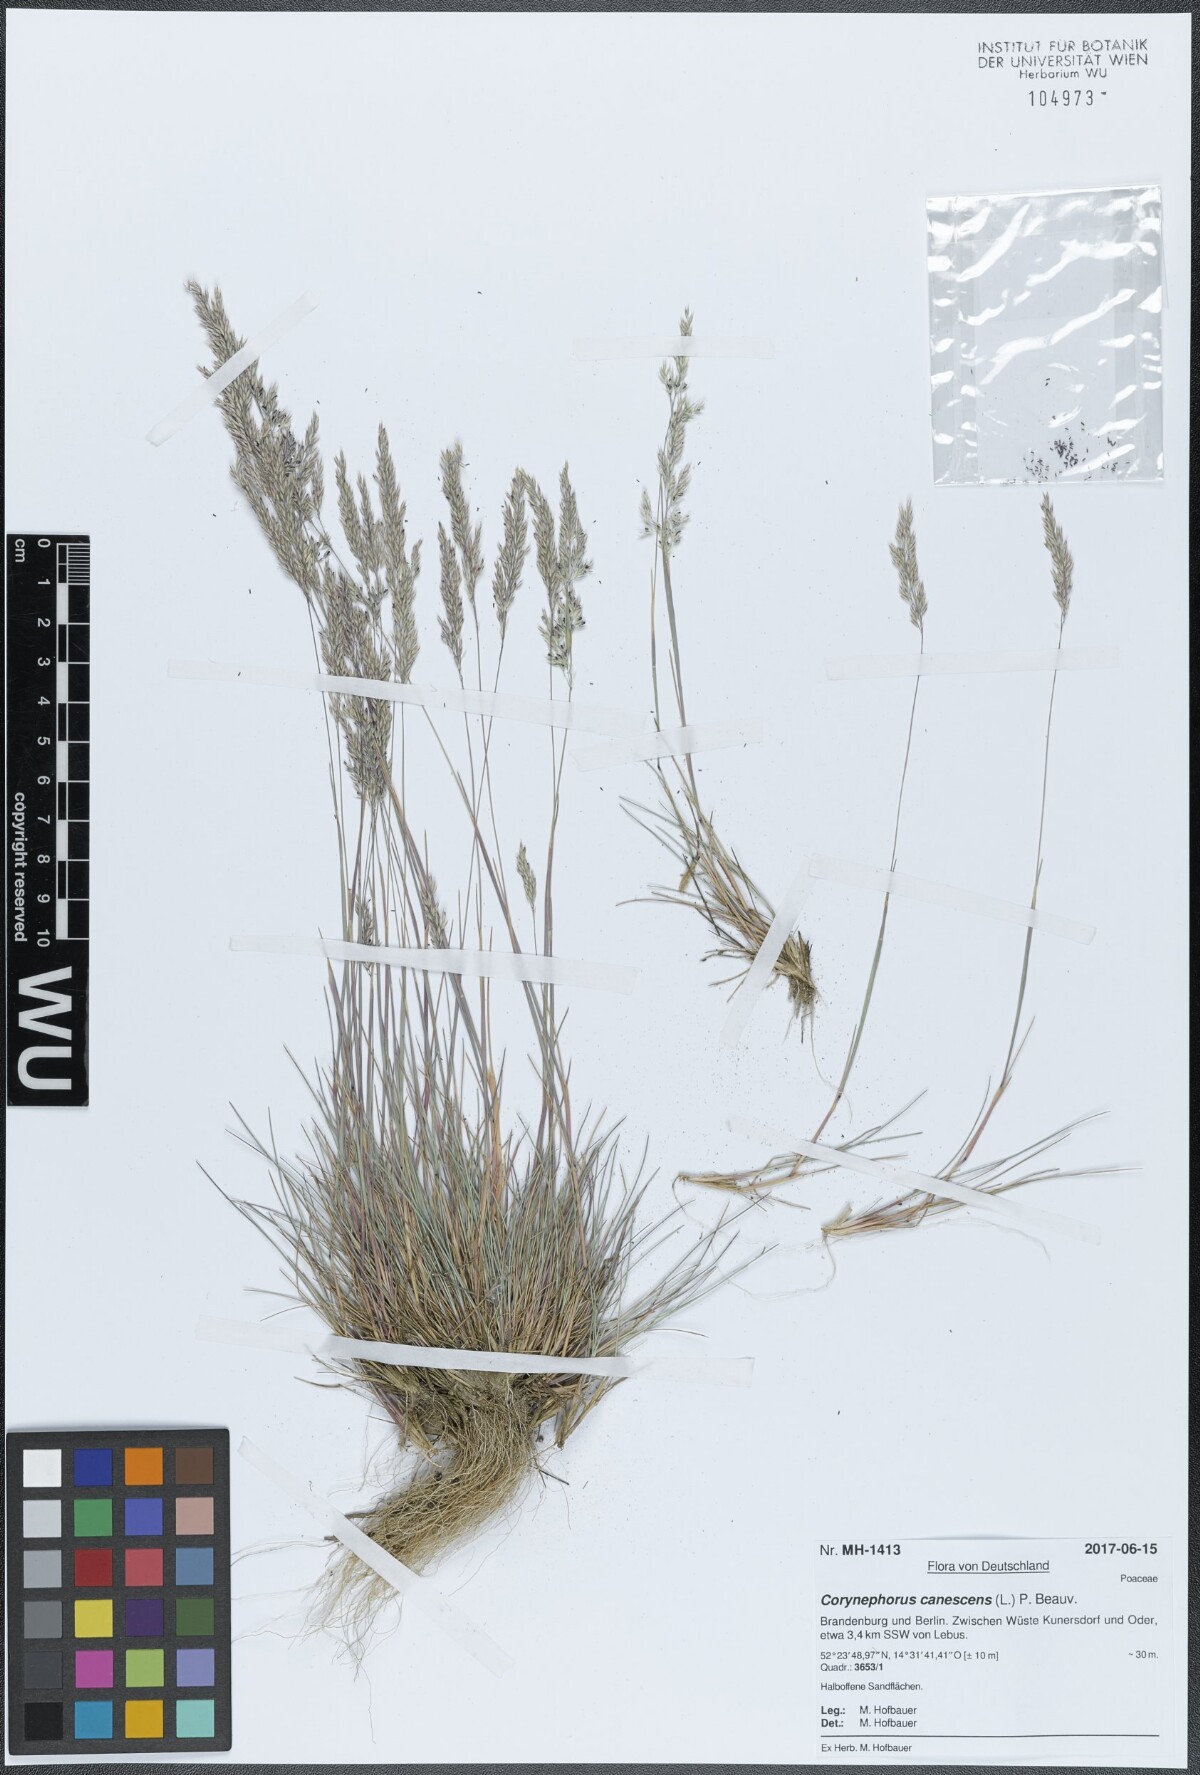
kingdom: Plantae
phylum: Tracheophyta
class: Liliopsida
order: Poales
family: Poaceae
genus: Corynephorus
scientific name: Corynephorus canescens
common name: Grey hair-grass
